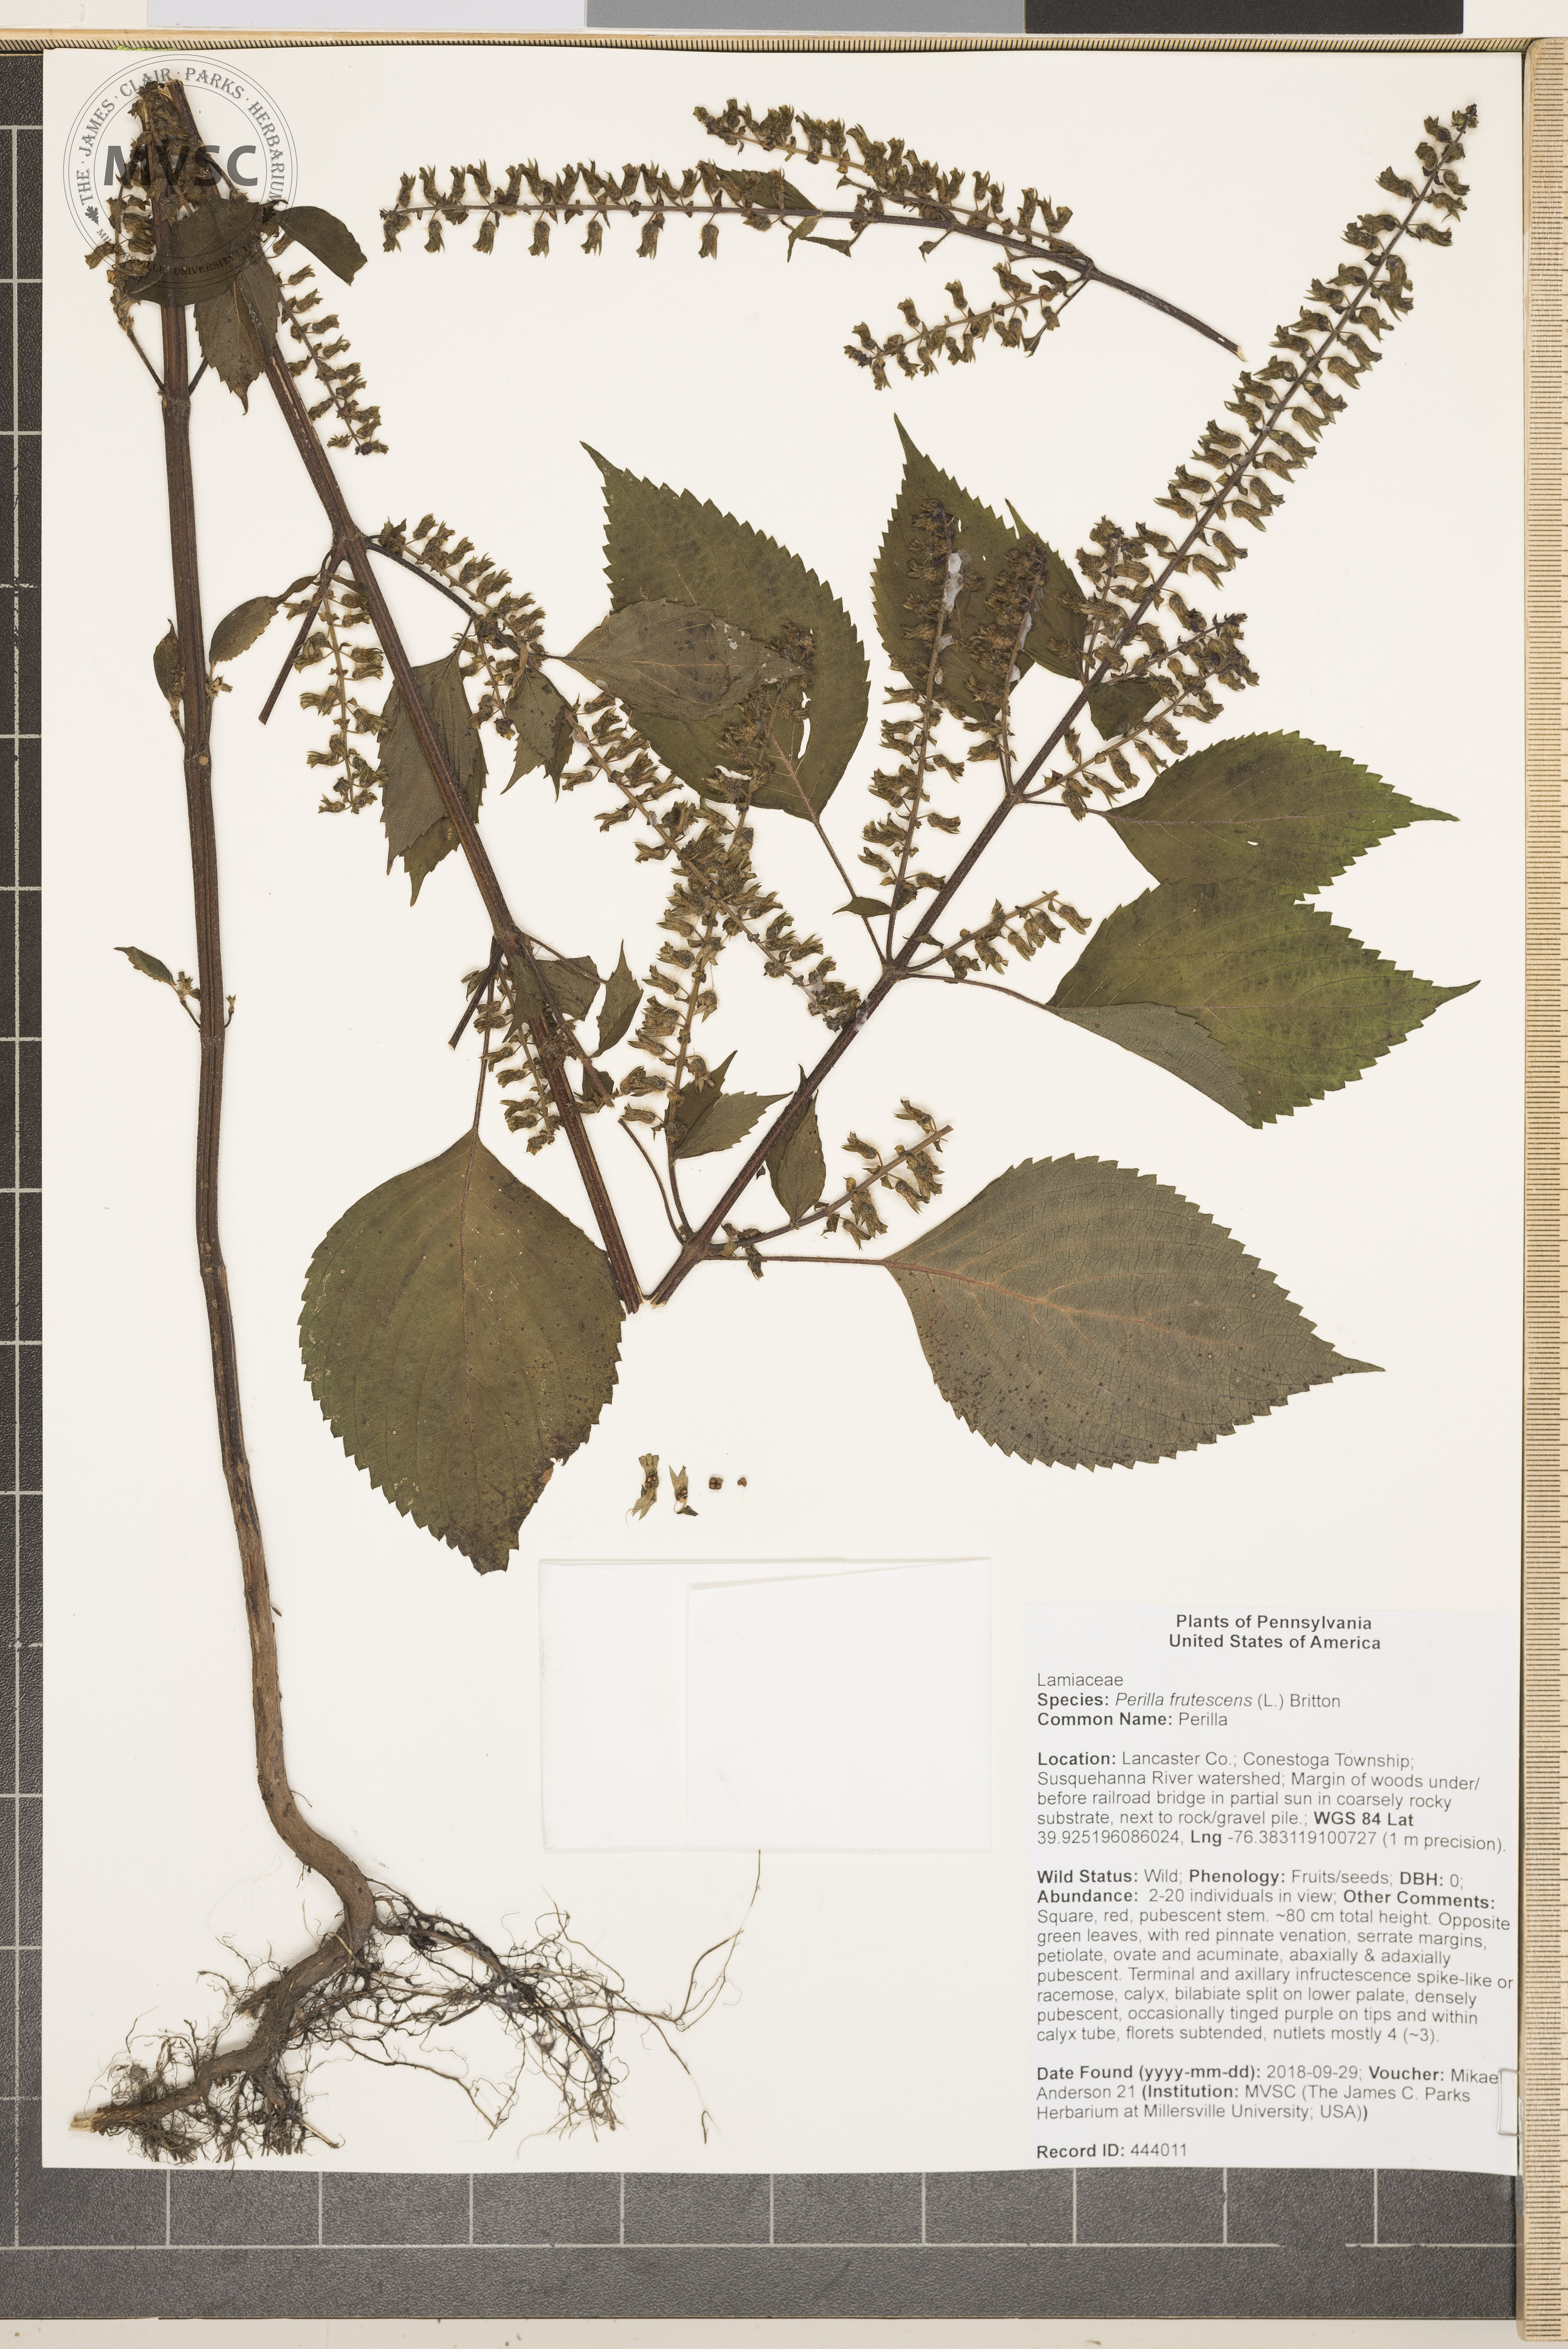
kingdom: Plantae
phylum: Tracheophyta
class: Magnoliopsida
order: Lamiales
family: Lamiaceae
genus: Perilla
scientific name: Perilla frutescens
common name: Perilla
